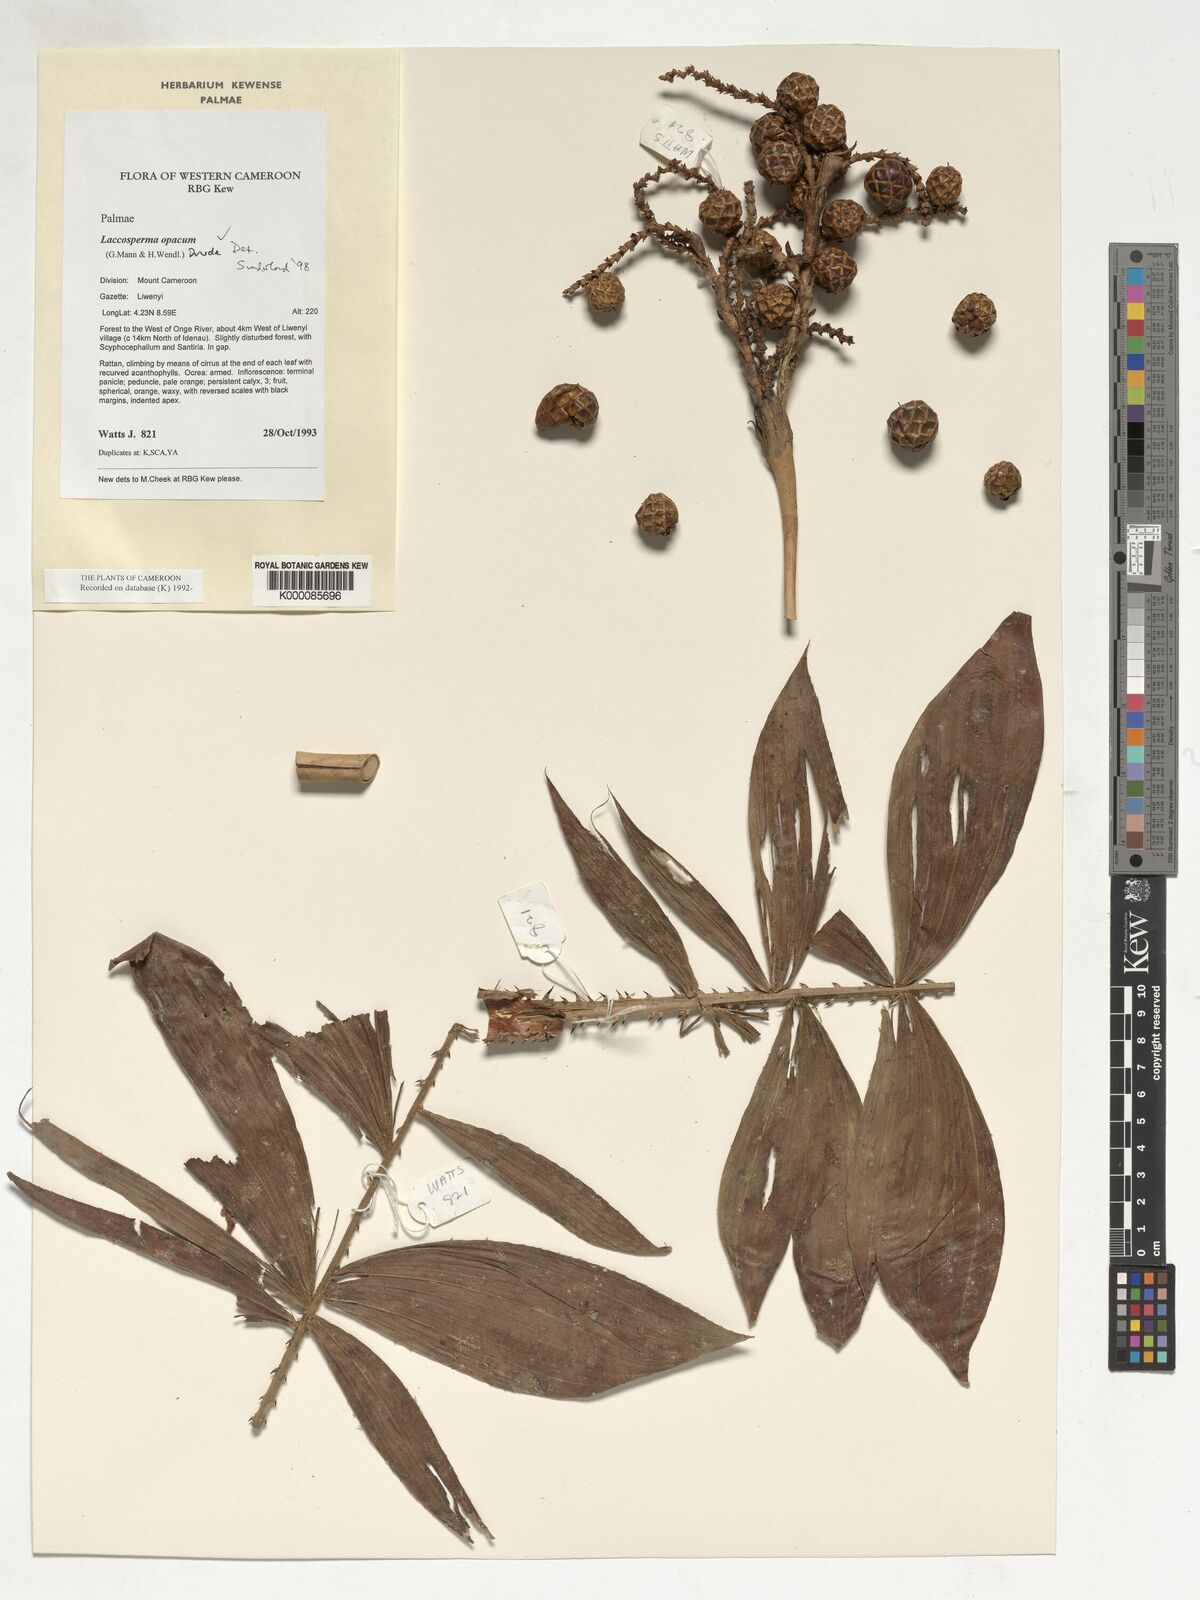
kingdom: Plantae
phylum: Tracheophyta
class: Liliopsida
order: Arecales
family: Arecaceae
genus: Laccosperma
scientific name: Laccosperma opacum
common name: Rattan
